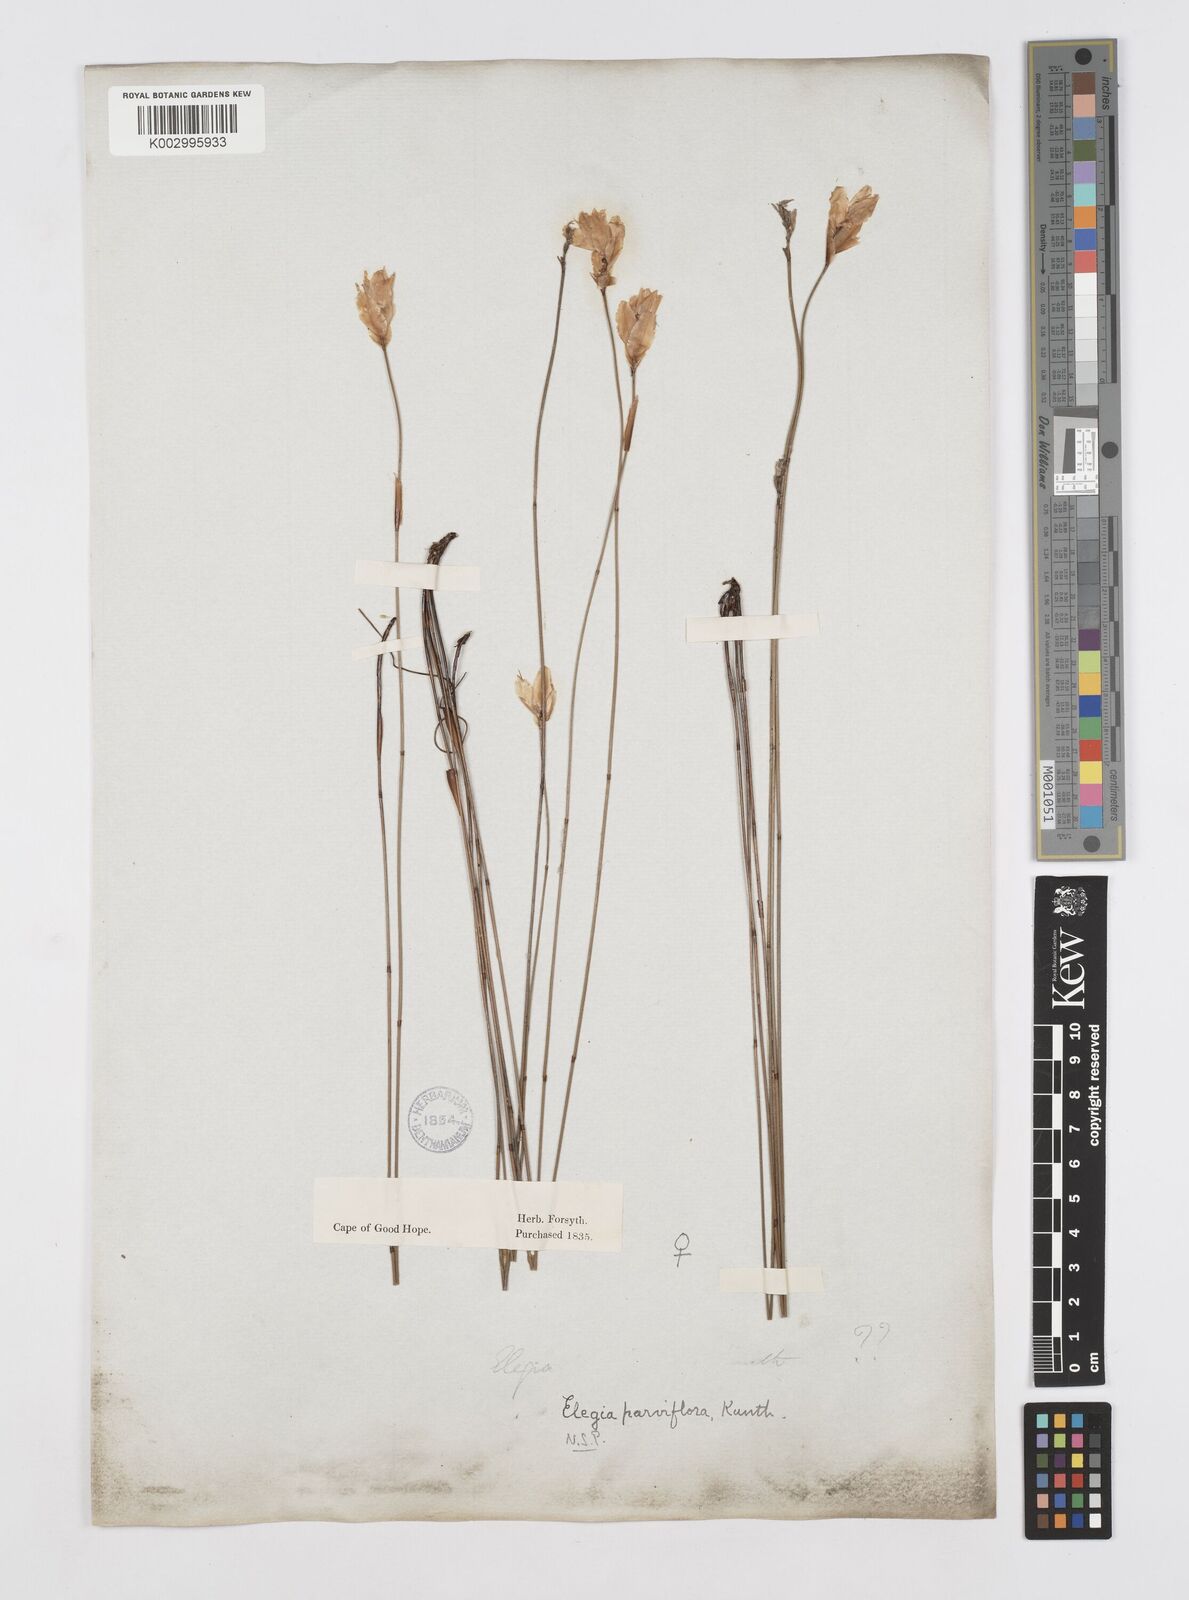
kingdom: Plantae
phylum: Tracheophyta
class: Liliopsida
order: Poales
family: Restionaceae
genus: Cannomois
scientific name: Cannomois parviflora
